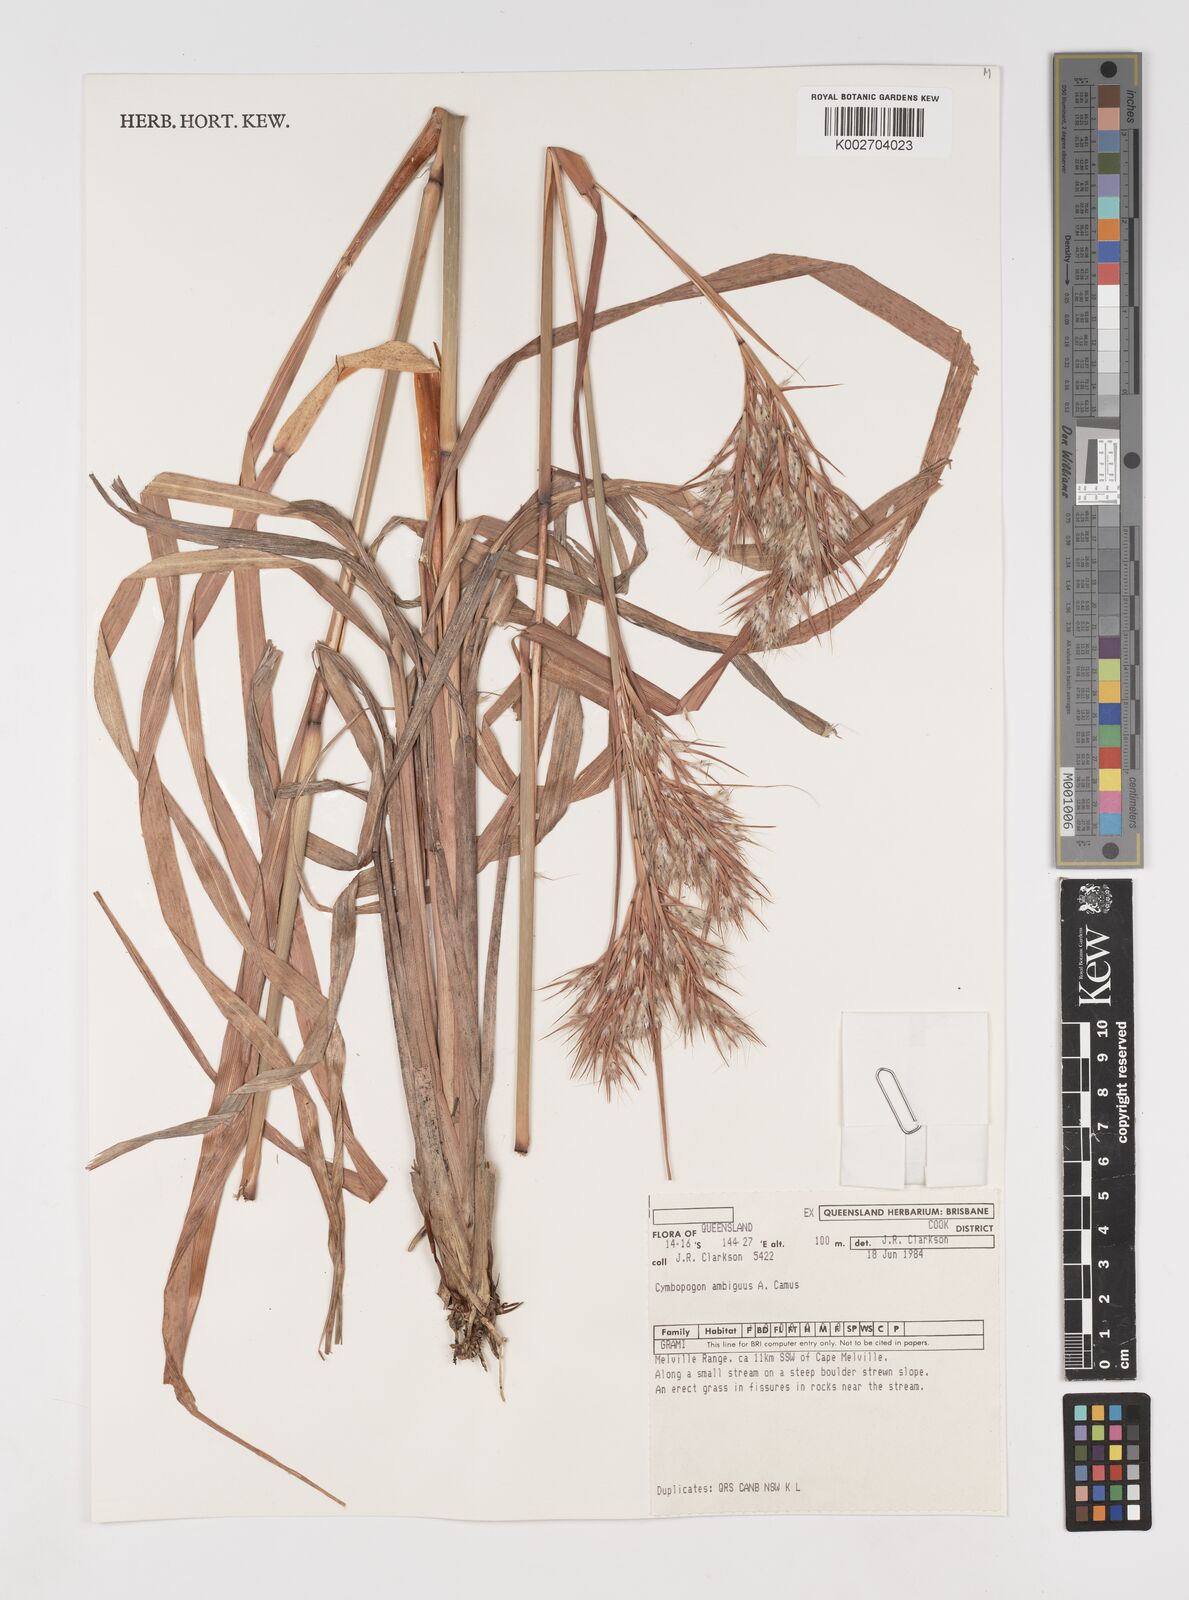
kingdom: Plantae
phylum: Tracheophyta
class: Liliopsida
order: Poales
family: Poaceae
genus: Cymbopogon
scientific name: Cymbopogon ambiguus
